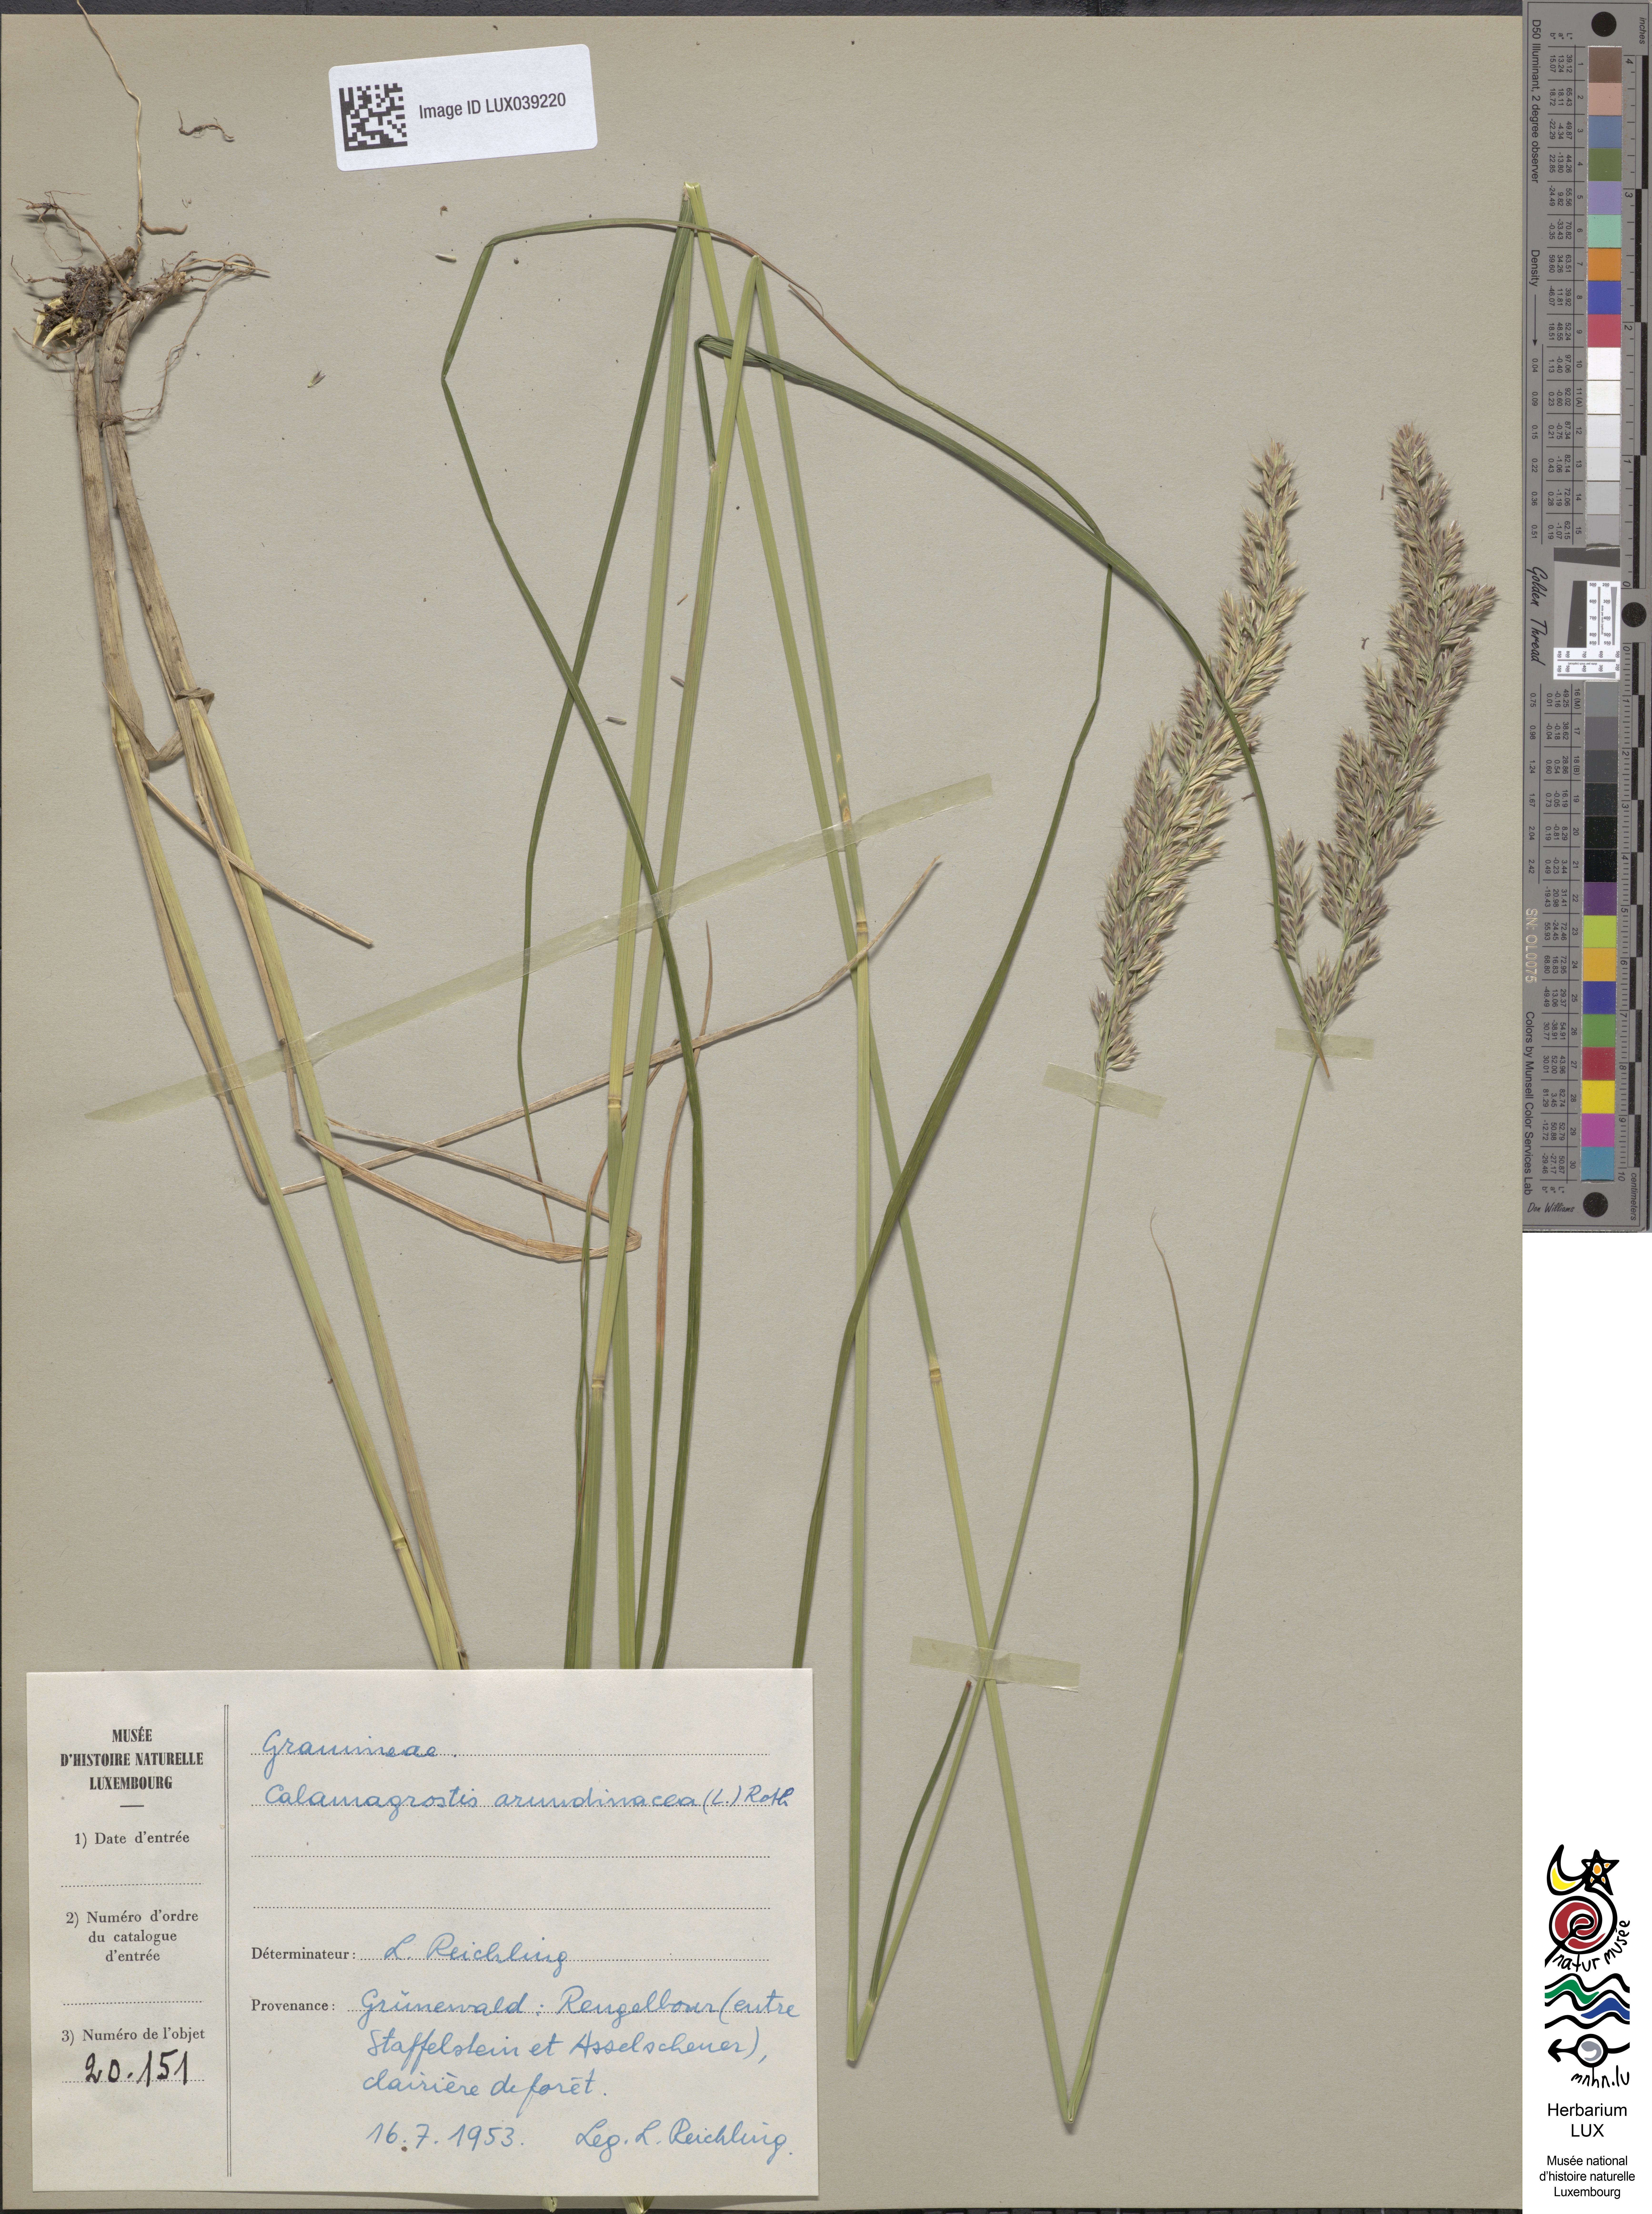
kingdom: Plantae
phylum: Tracheophyta
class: Liliopsida
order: Poales
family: Poaceae
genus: Calamagrostis
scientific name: Calamagrostis arundinacea
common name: Metskastik
